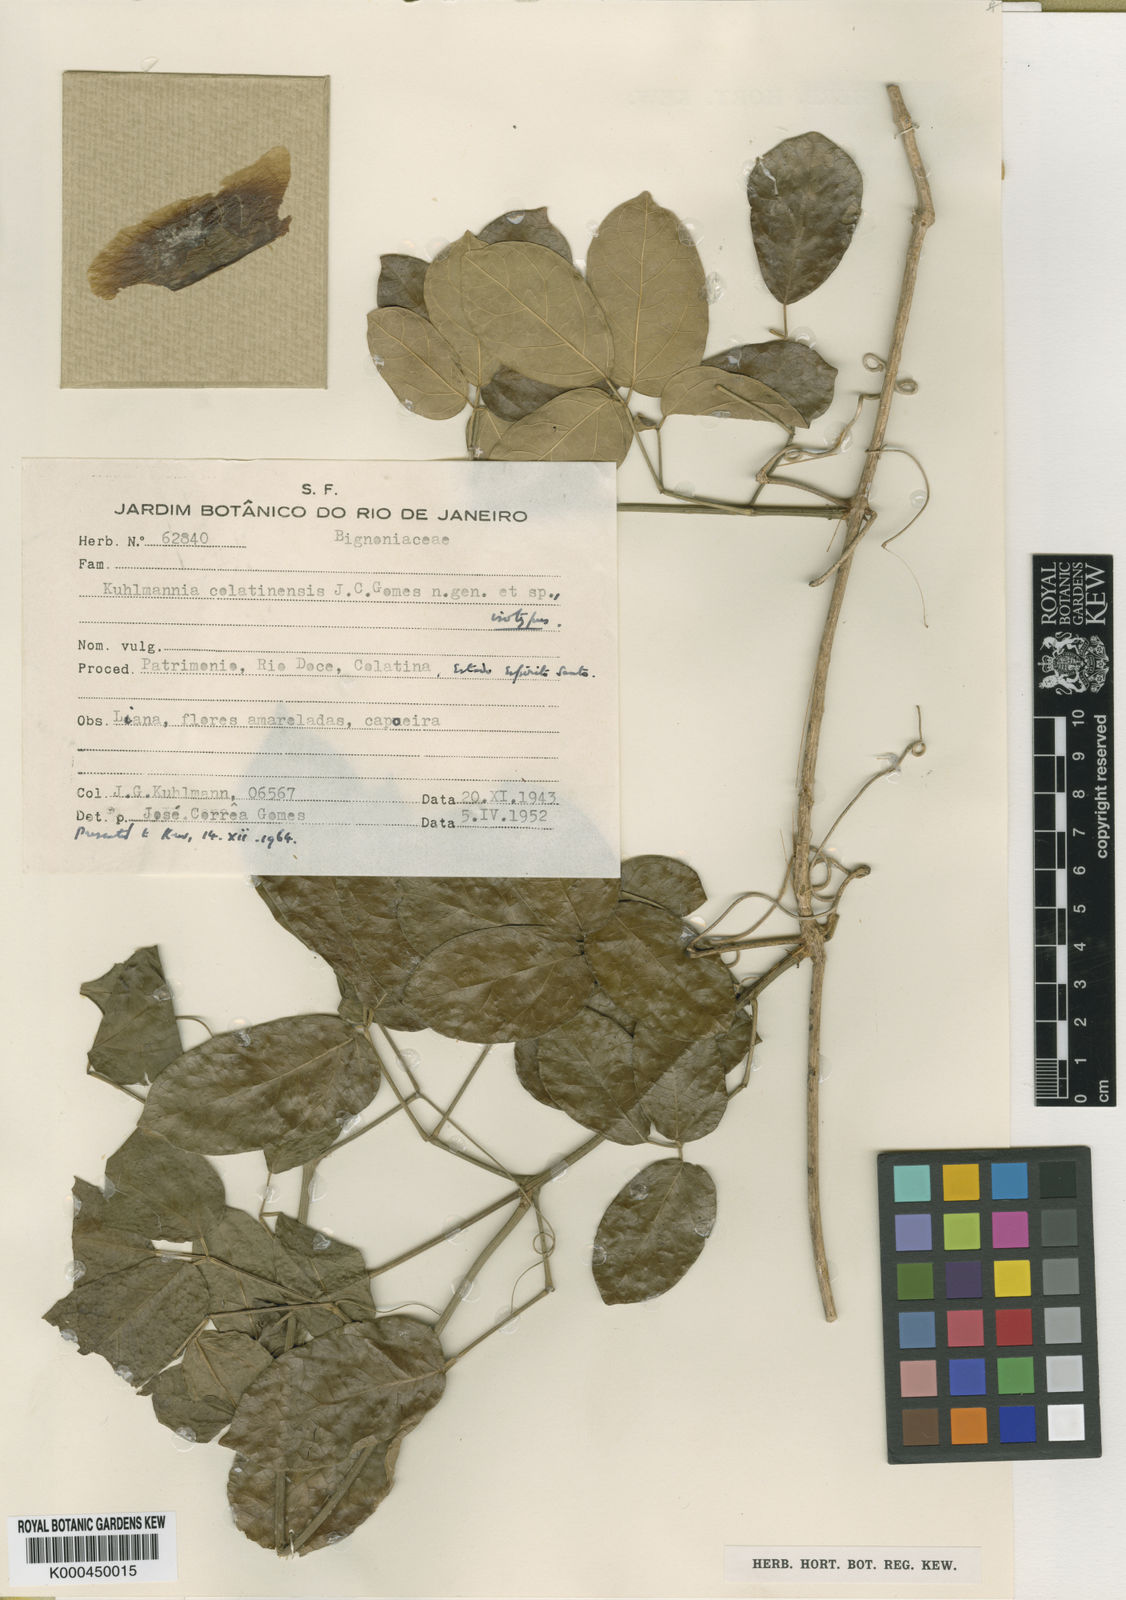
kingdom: Plantae
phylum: Tracheophyta
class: Magnoliopsida
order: Lamiales
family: Bignoniaceae
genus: Adenocalymma
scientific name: Adenocalymma albiflorum
